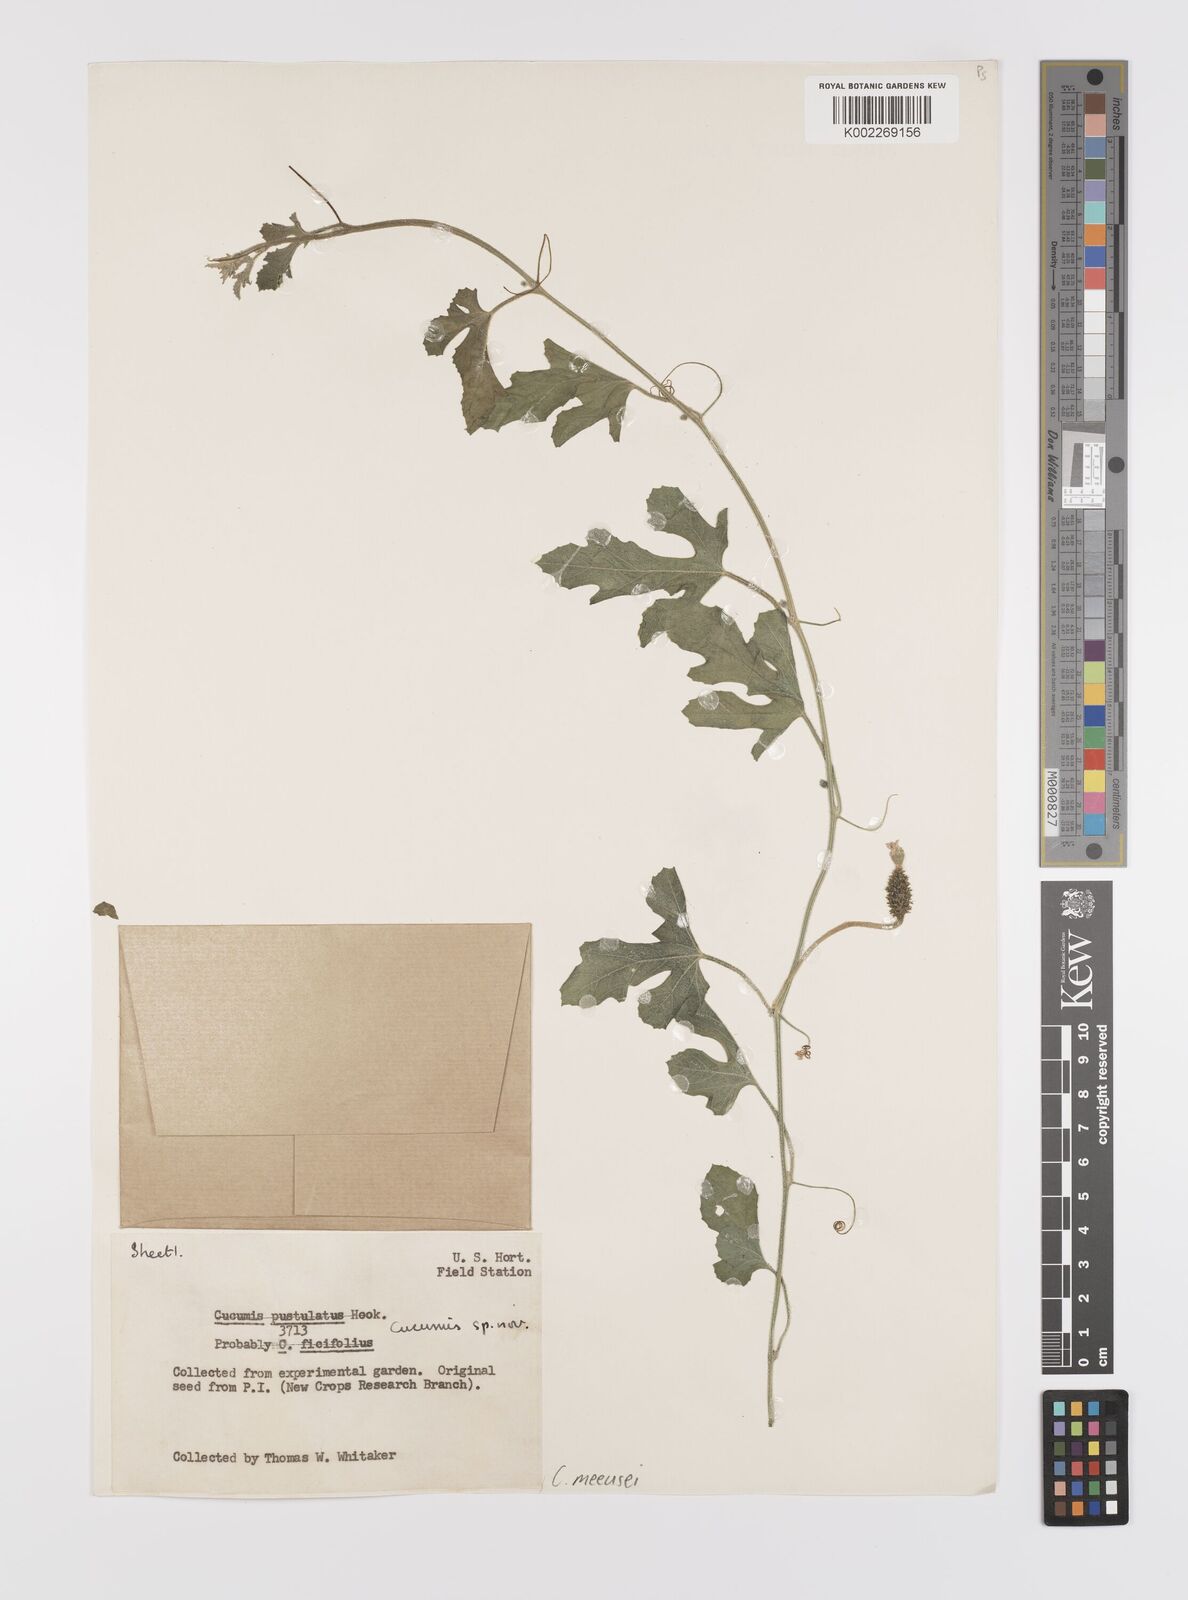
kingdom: Plantae
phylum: Tracheophyta
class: Magnoliopsida
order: Cucurbitales
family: Cucurbitaceae
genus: Cucumis
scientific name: Cucumis meeusei
